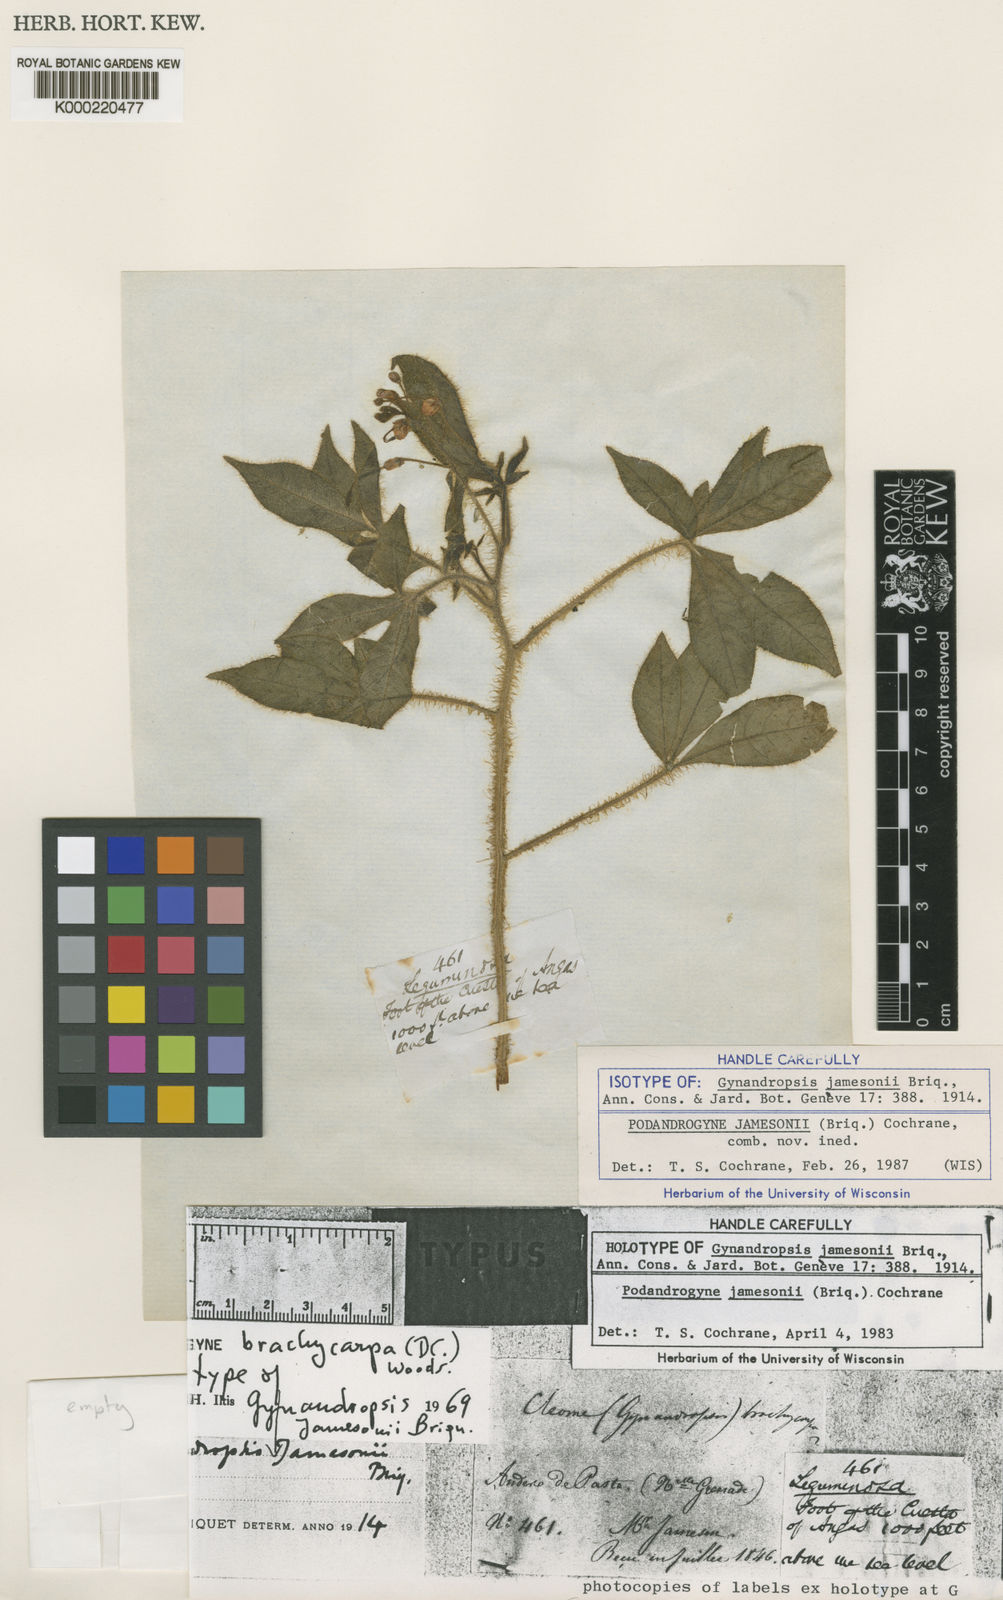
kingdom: Plantae
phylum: Tracheophyta
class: Magnoliopsida
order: Brassicales
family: Cleomaceae
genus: Podandrogyne
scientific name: Podandrogyne jamesonii
